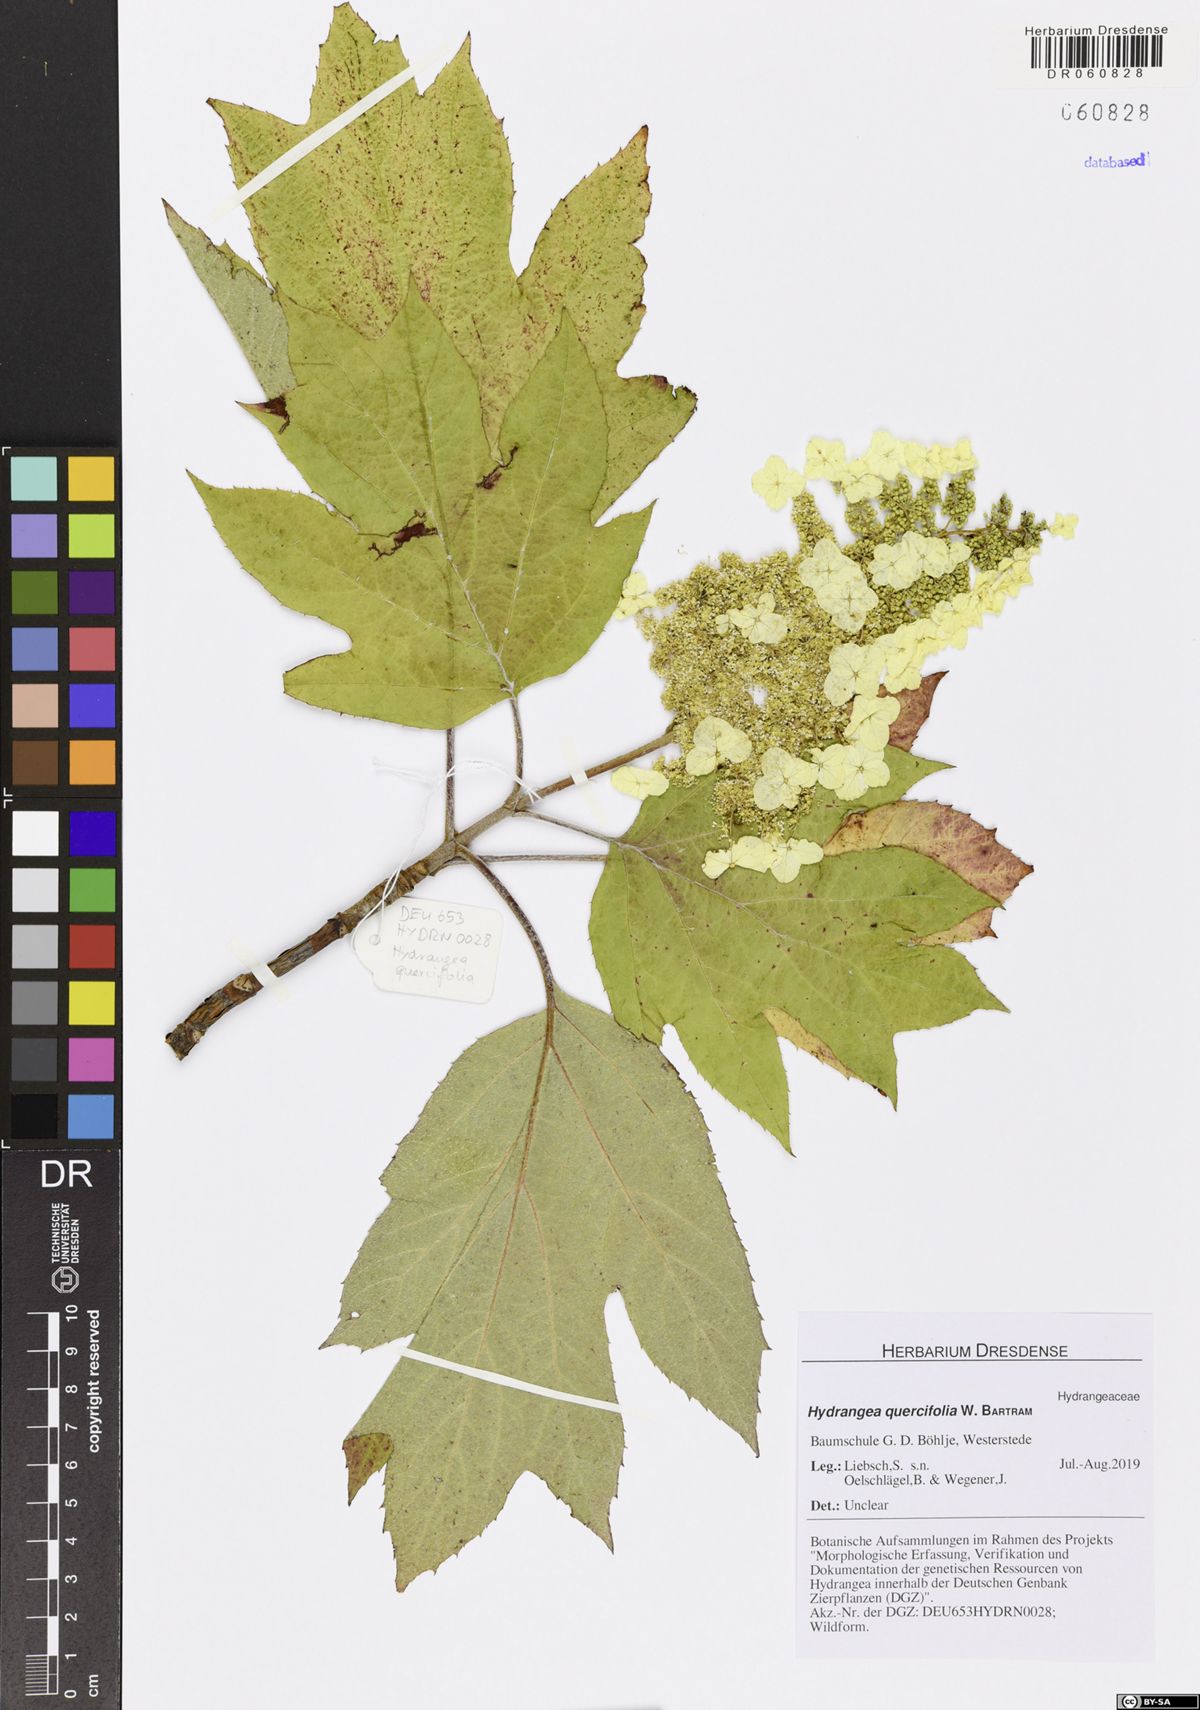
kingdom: Plantae
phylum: Tracheophyta
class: Magnoliopsida
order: Cornales
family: Hydrangeaceae
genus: Hydrangea
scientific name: Hydrangea quercifolia
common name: Oak-leaf hydrangea
